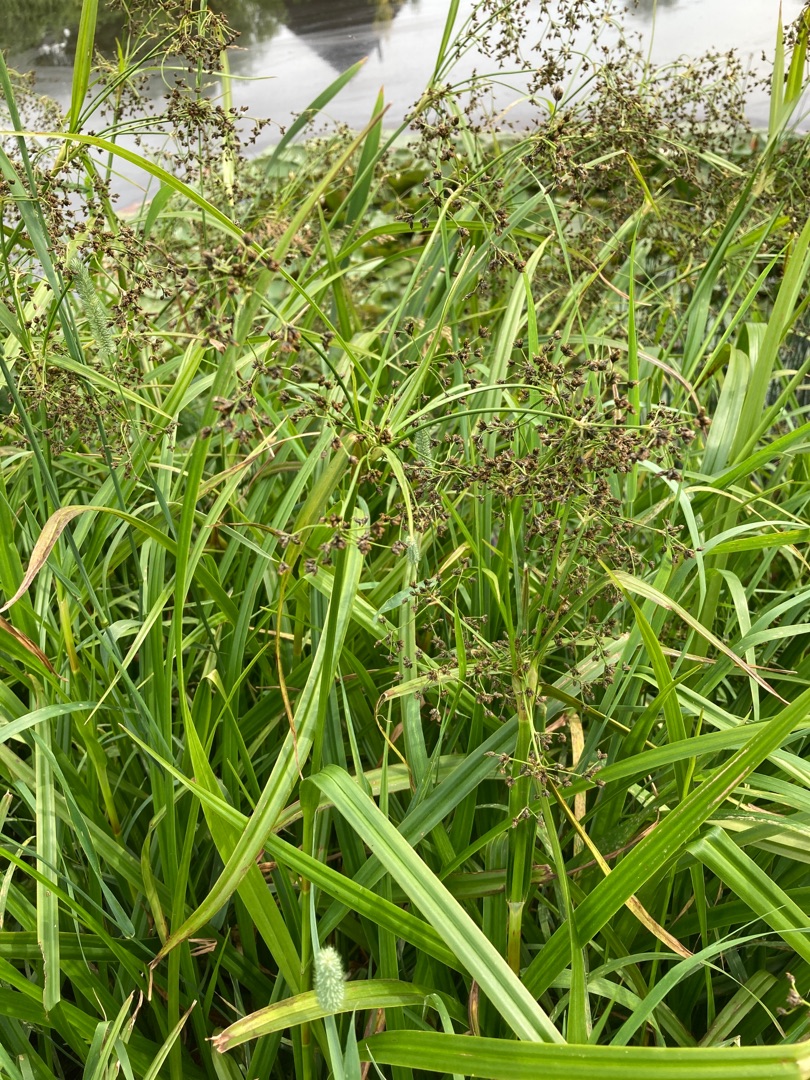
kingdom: Plantae
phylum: Tracheophyta
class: Liliopsida
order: Poales
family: Cyperaceae
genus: Scirpus
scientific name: Scirpus sylvaticus
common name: Skov-kogleaks
